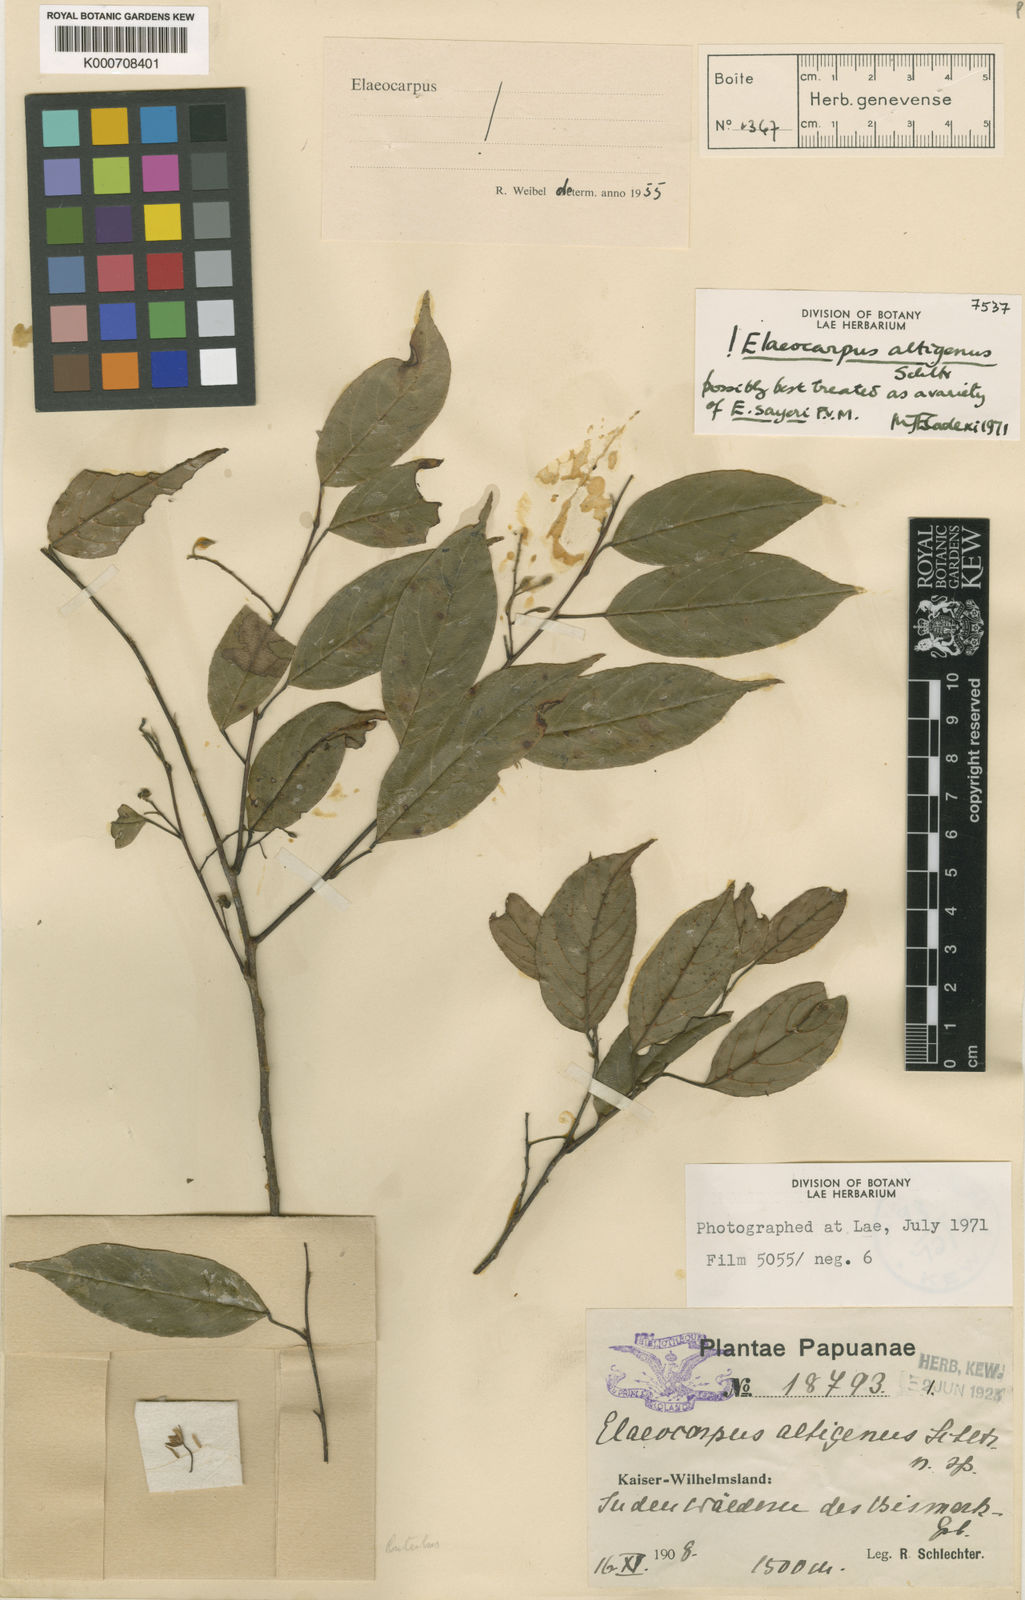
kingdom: Plantae
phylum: Tracheophyta
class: Magnoliopsida
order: Oxalidales
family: Elaeocarpaceae
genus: Elaeocarpus
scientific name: Elaeocarpus altigenus
